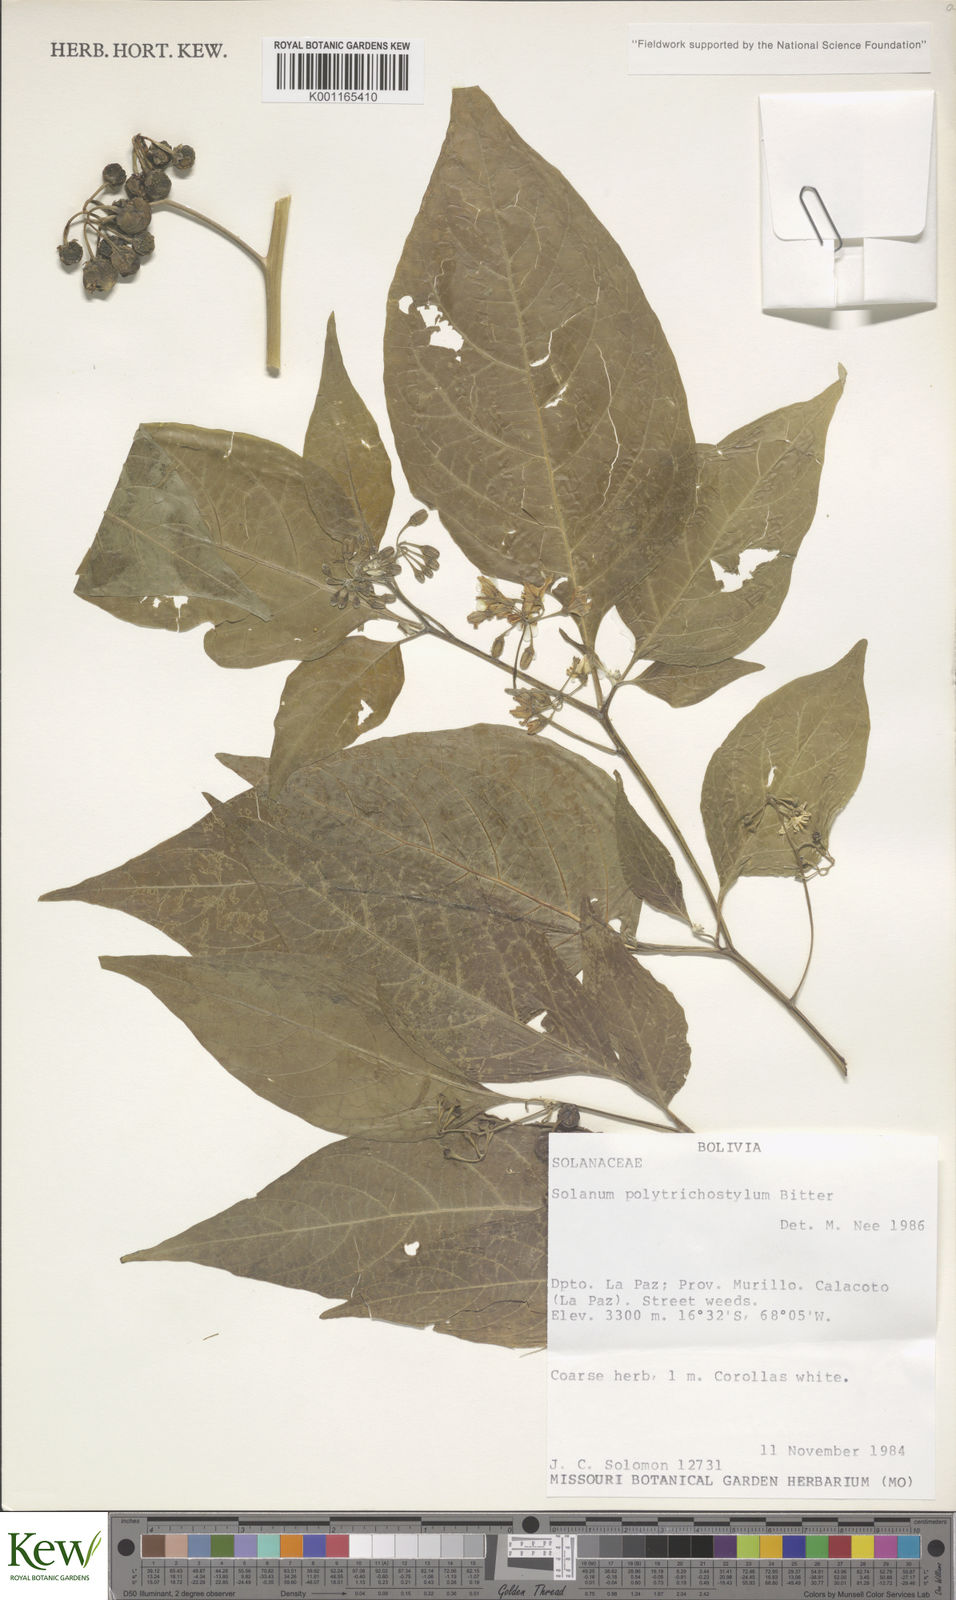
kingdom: Plantae
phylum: Tracheophyta
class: Magnoliopsida
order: Solanales
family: Solanaceae
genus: Solanum
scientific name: Solanum polytrichostylum
